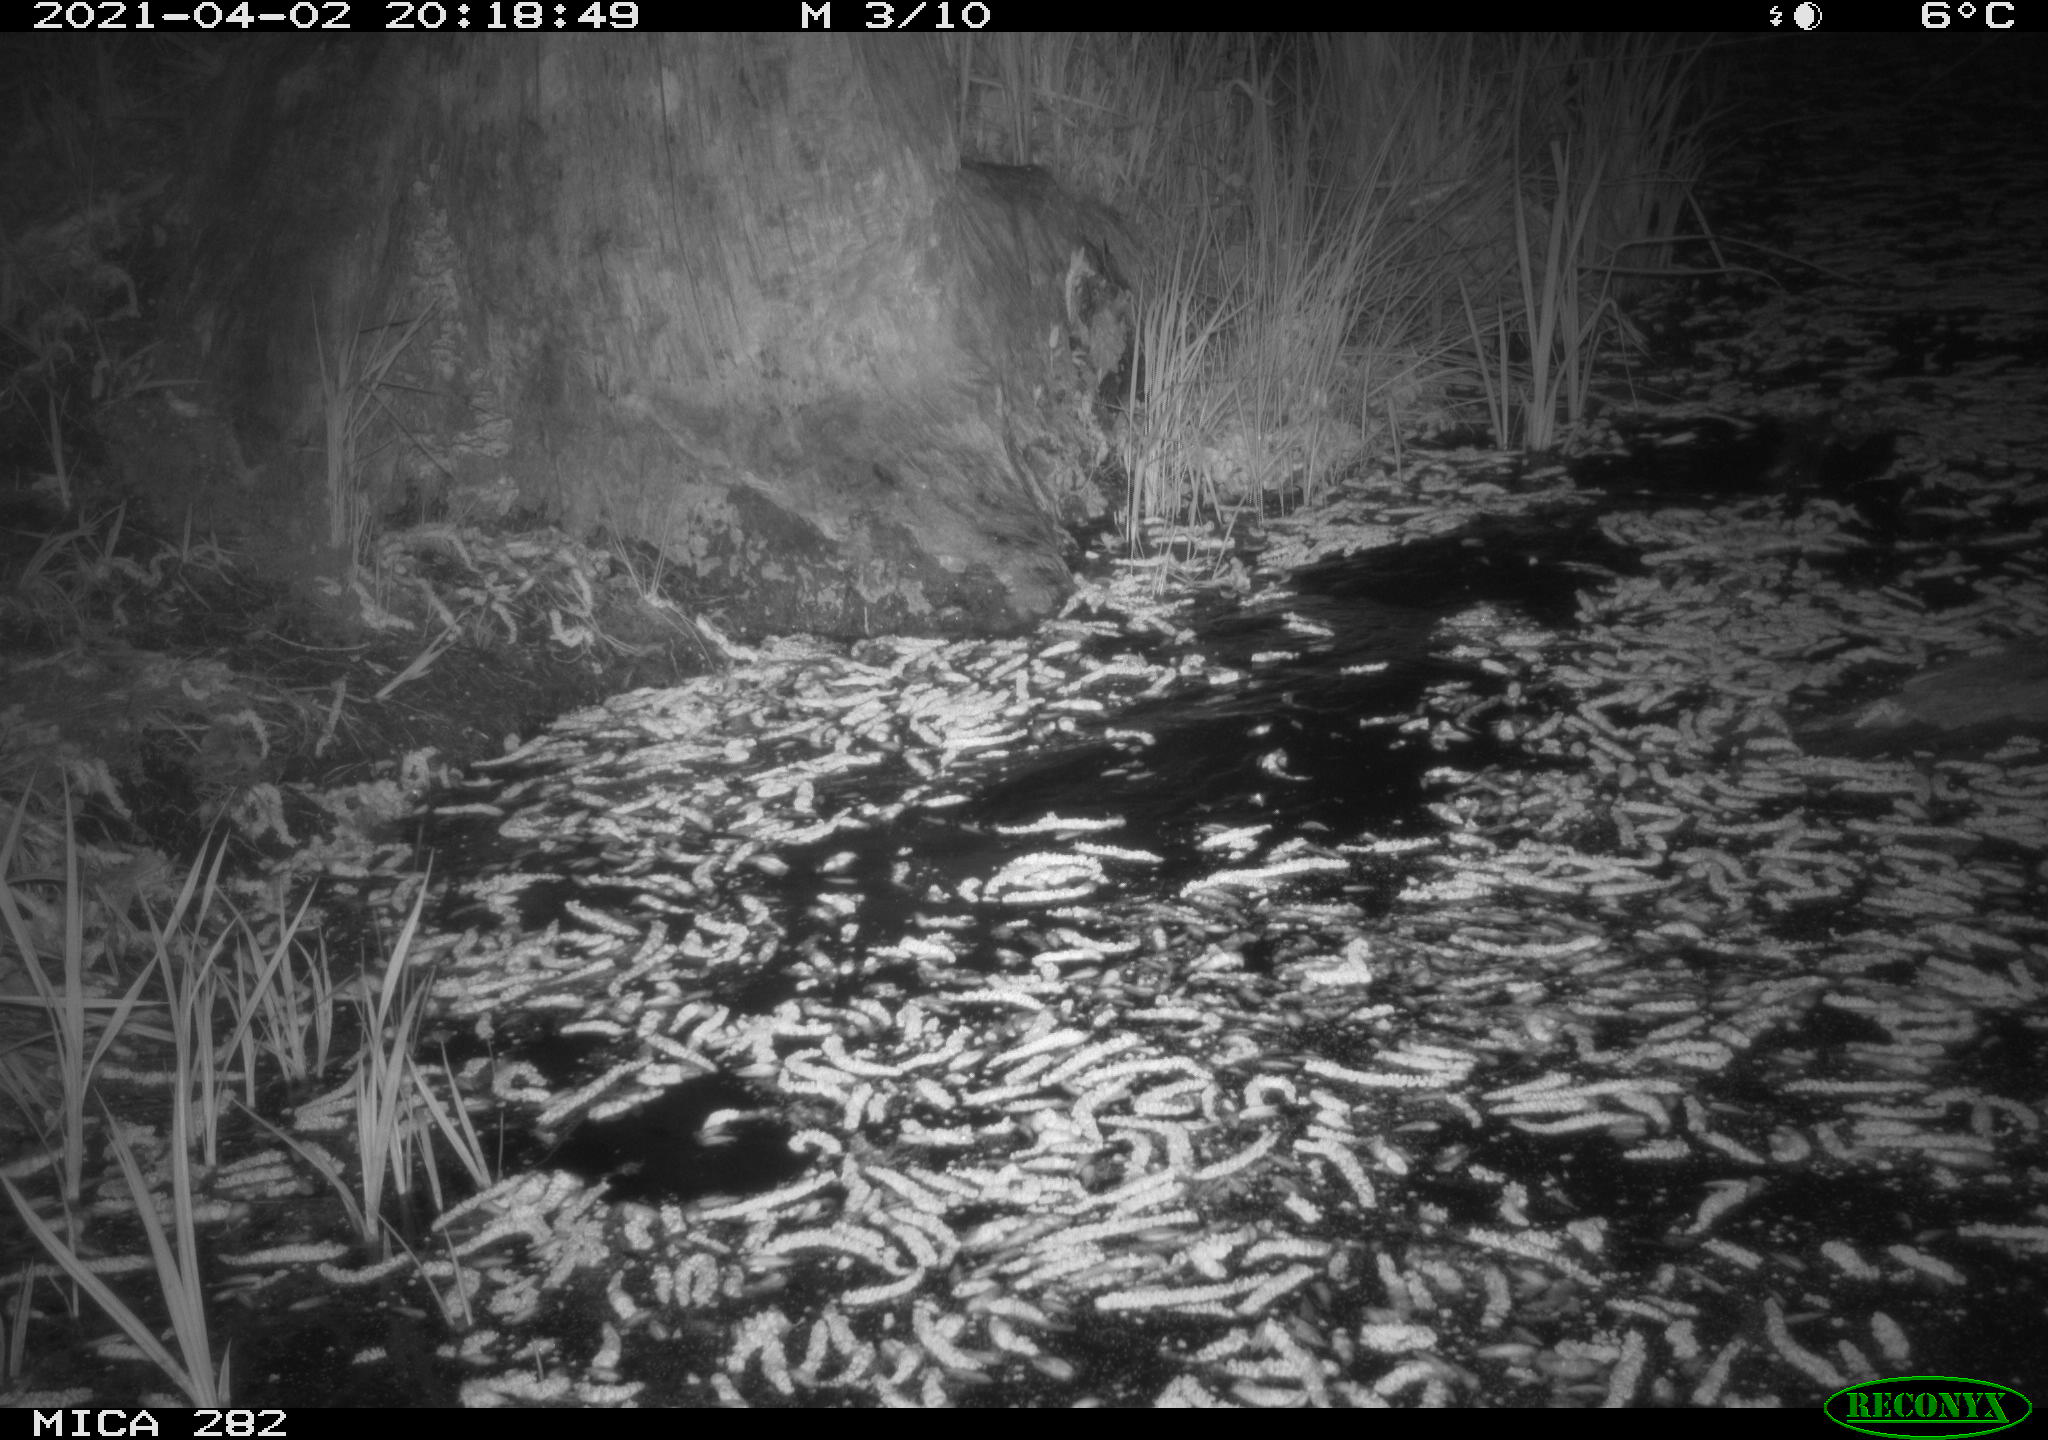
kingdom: Animalia
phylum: Chordata
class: Mammalia
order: Rodentia
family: Castoridae
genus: Castor
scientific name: Castor fiber
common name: Eurasian beaver
